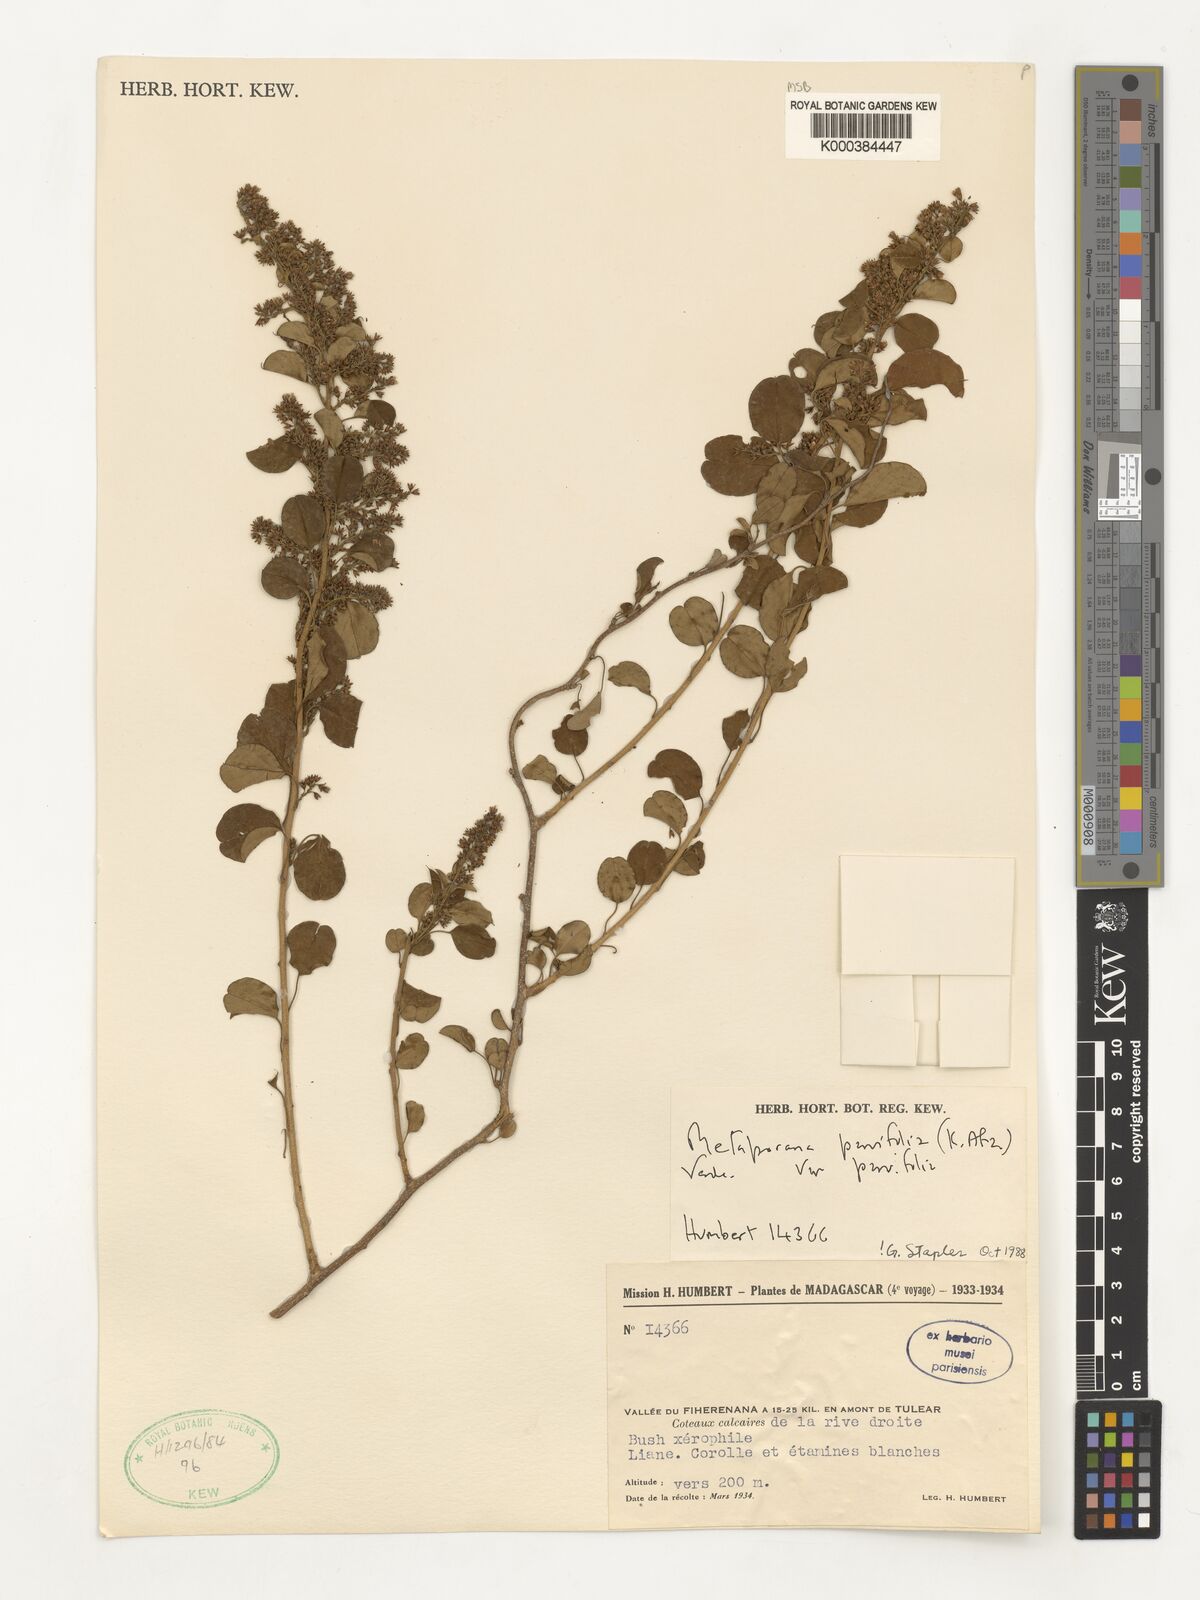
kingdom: Plantae
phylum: Tracheophyta
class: Magnoliopsida
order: Solanales
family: Convolvulaceae
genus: Metaporana
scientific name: Metaporana parvifolia
